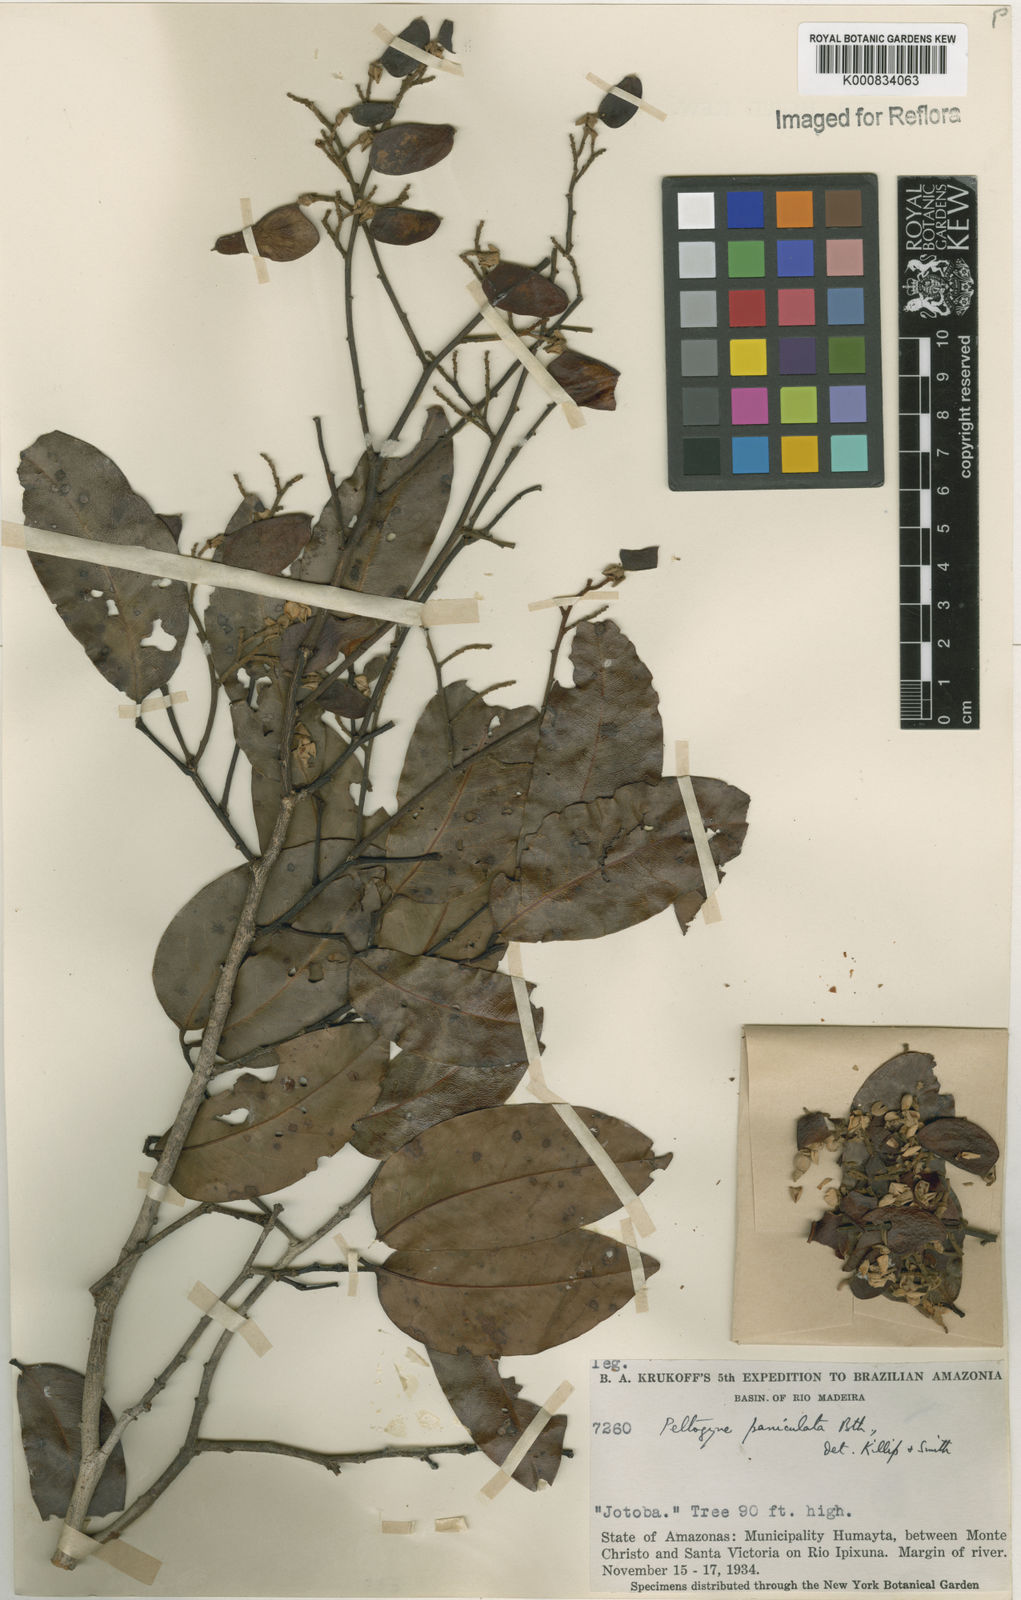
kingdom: Plantae
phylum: Tracheophyta
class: Magnoliopsida
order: Fabales
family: Fabaceae
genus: Peltogyne
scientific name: Peltogyne paniculata
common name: Purpleheart
